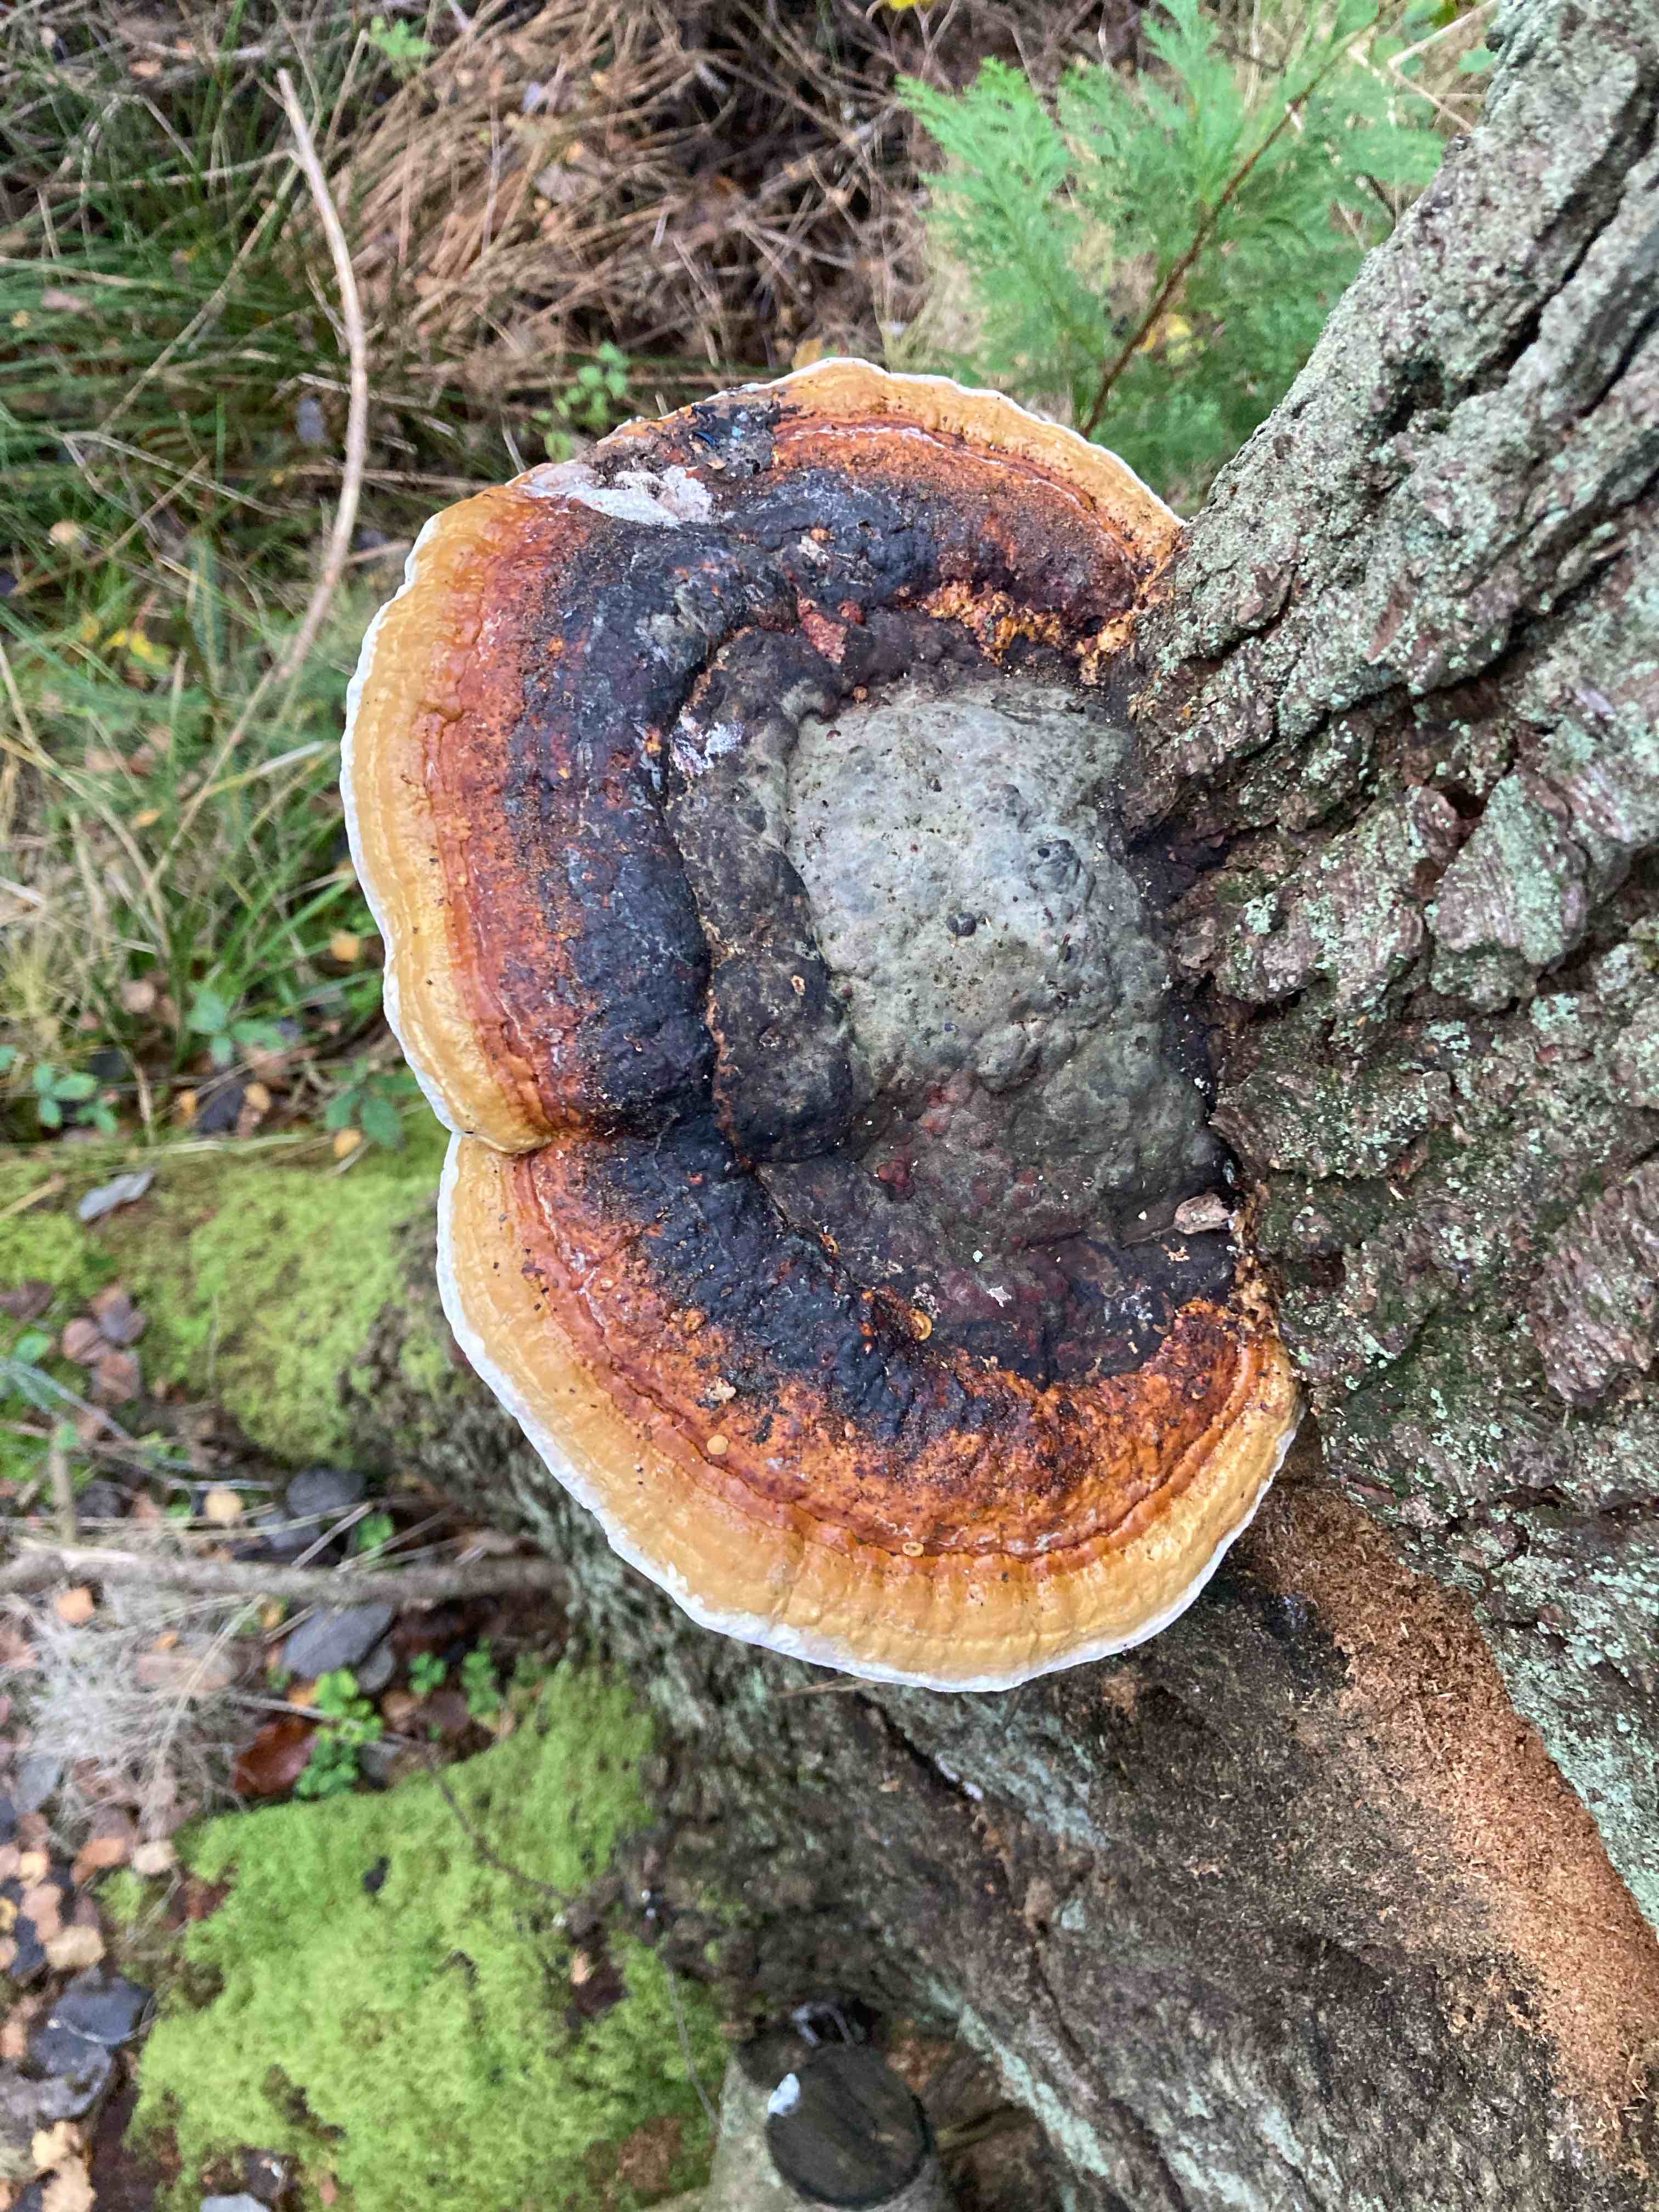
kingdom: Fungi
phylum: Basidiomycota
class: Agaricomycetes
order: Polyporales
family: Fomitopsidaceae
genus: Fomitopsis
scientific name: Fomitopsis pinicola
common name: randbæltet hovporesvamp
